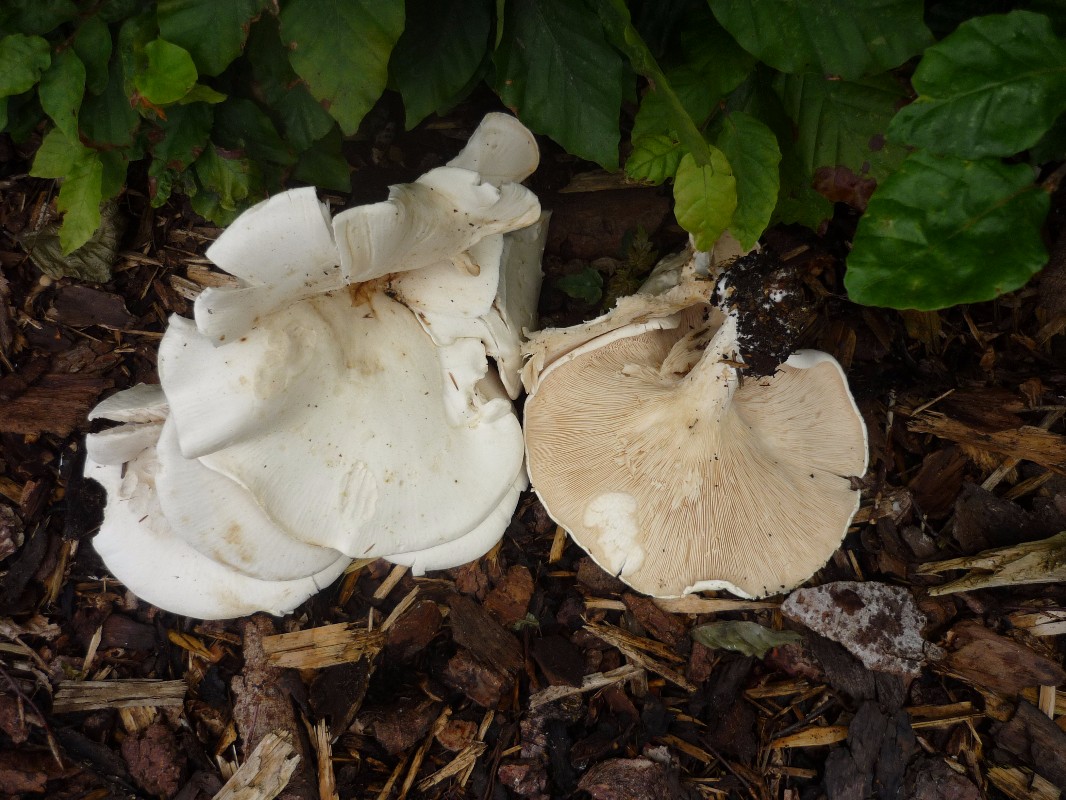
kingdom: Fungi
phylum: Basidiomycota
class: Agaricomycetes
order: Agaricales
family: Tricholomataceae
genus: Aspropaxillus
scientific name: Aspropaxillus giganteus
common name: kæmpe-tragtridderhat
